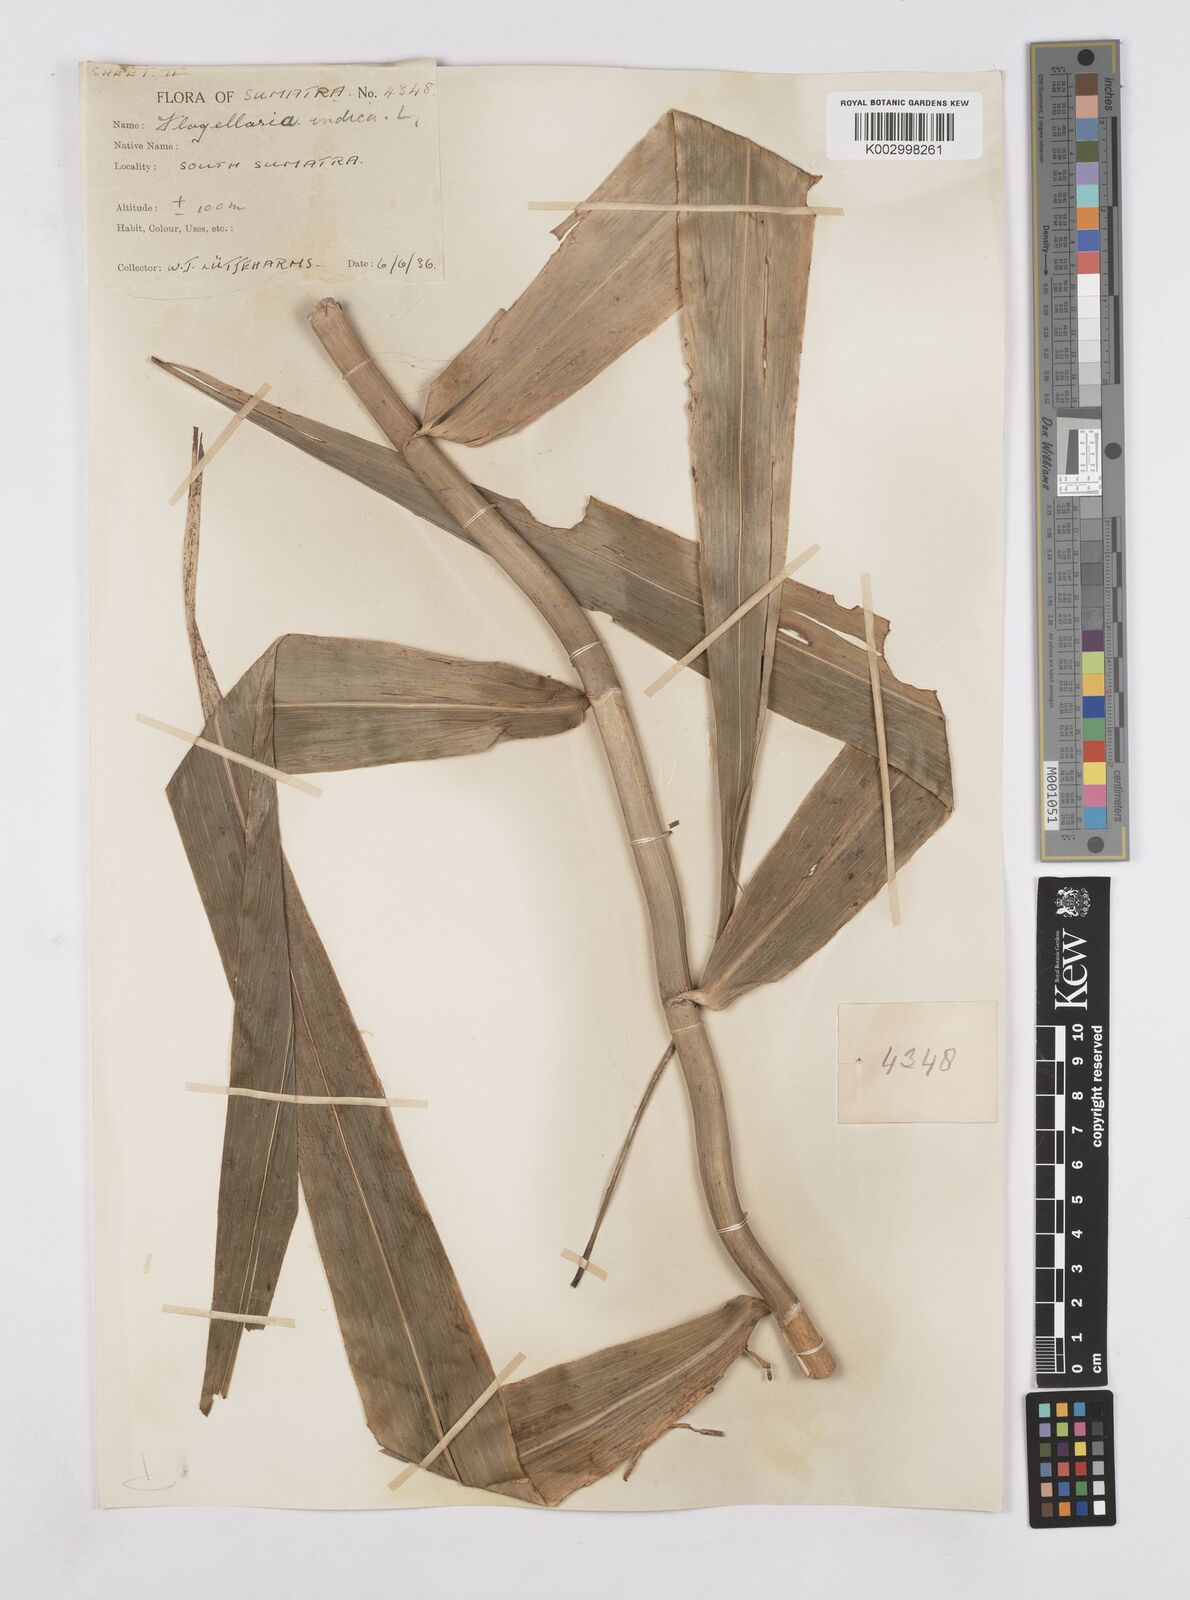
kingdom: Plantae
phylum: Tracheophyta
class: Liliopsida
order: Poales
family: Flagellariaceae
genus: Flagellaria
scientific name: Flagellaria indica
